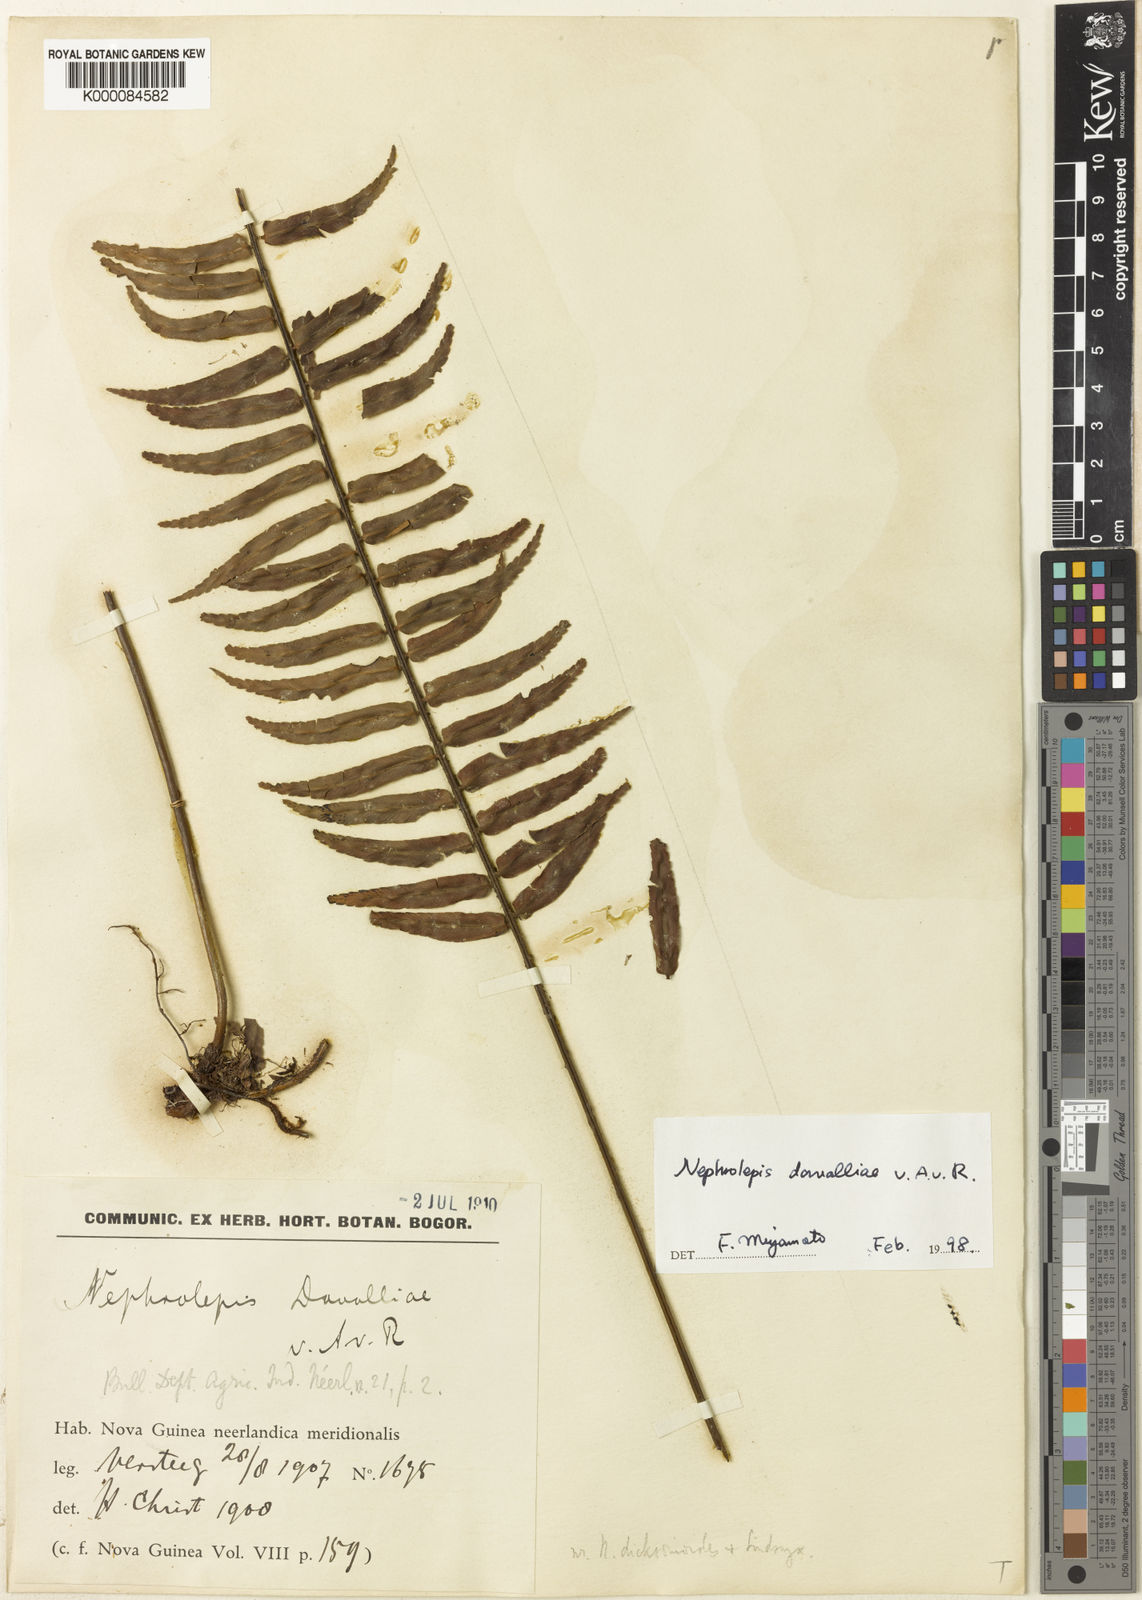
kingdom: Plantae
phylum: Tracheophyta
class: Polypodiopsida
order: Polypodiales
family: Nephrolepidaceae
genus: Nephrolepis
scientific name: Nephrolepis davalliae
